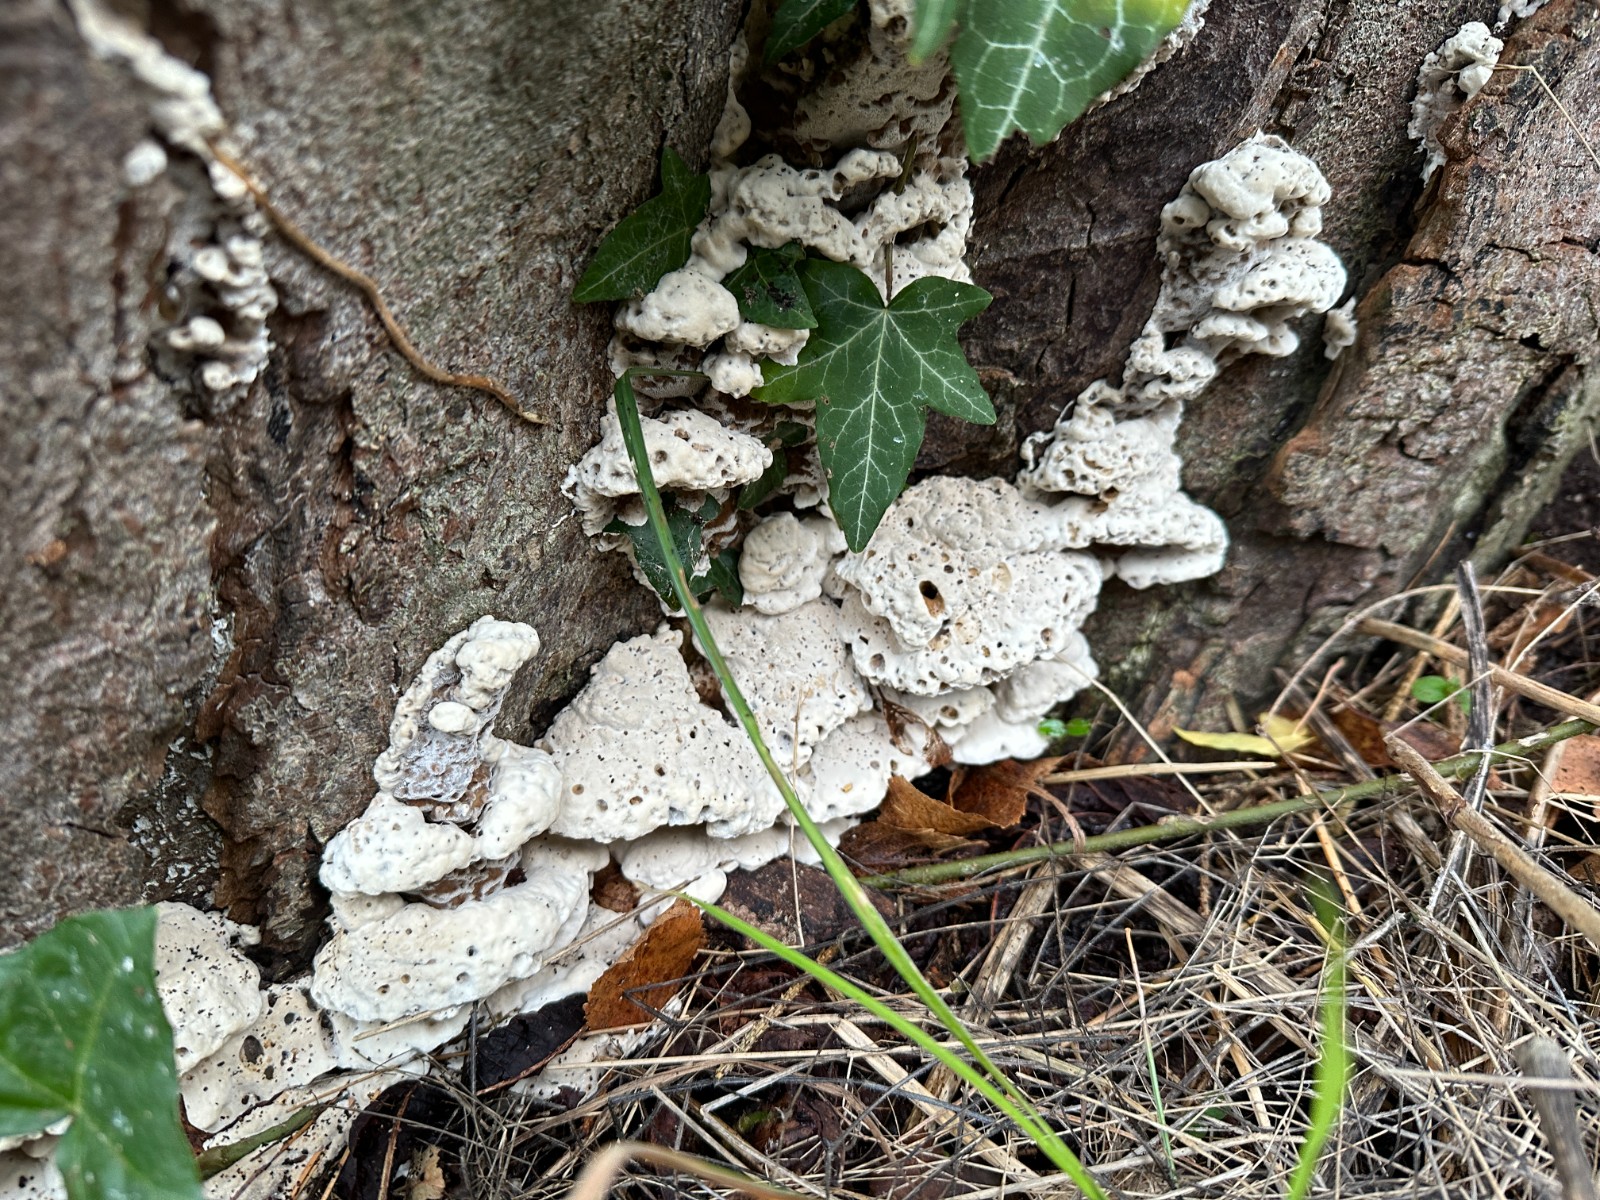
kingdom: Fungi
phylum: Basidiomycota
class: Agaricomycetes
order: Polyporales
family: Phanerochaetaceae
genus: Bjerkandera
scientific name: Bjerkandera fumosa
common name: grågul sodporesvamp
